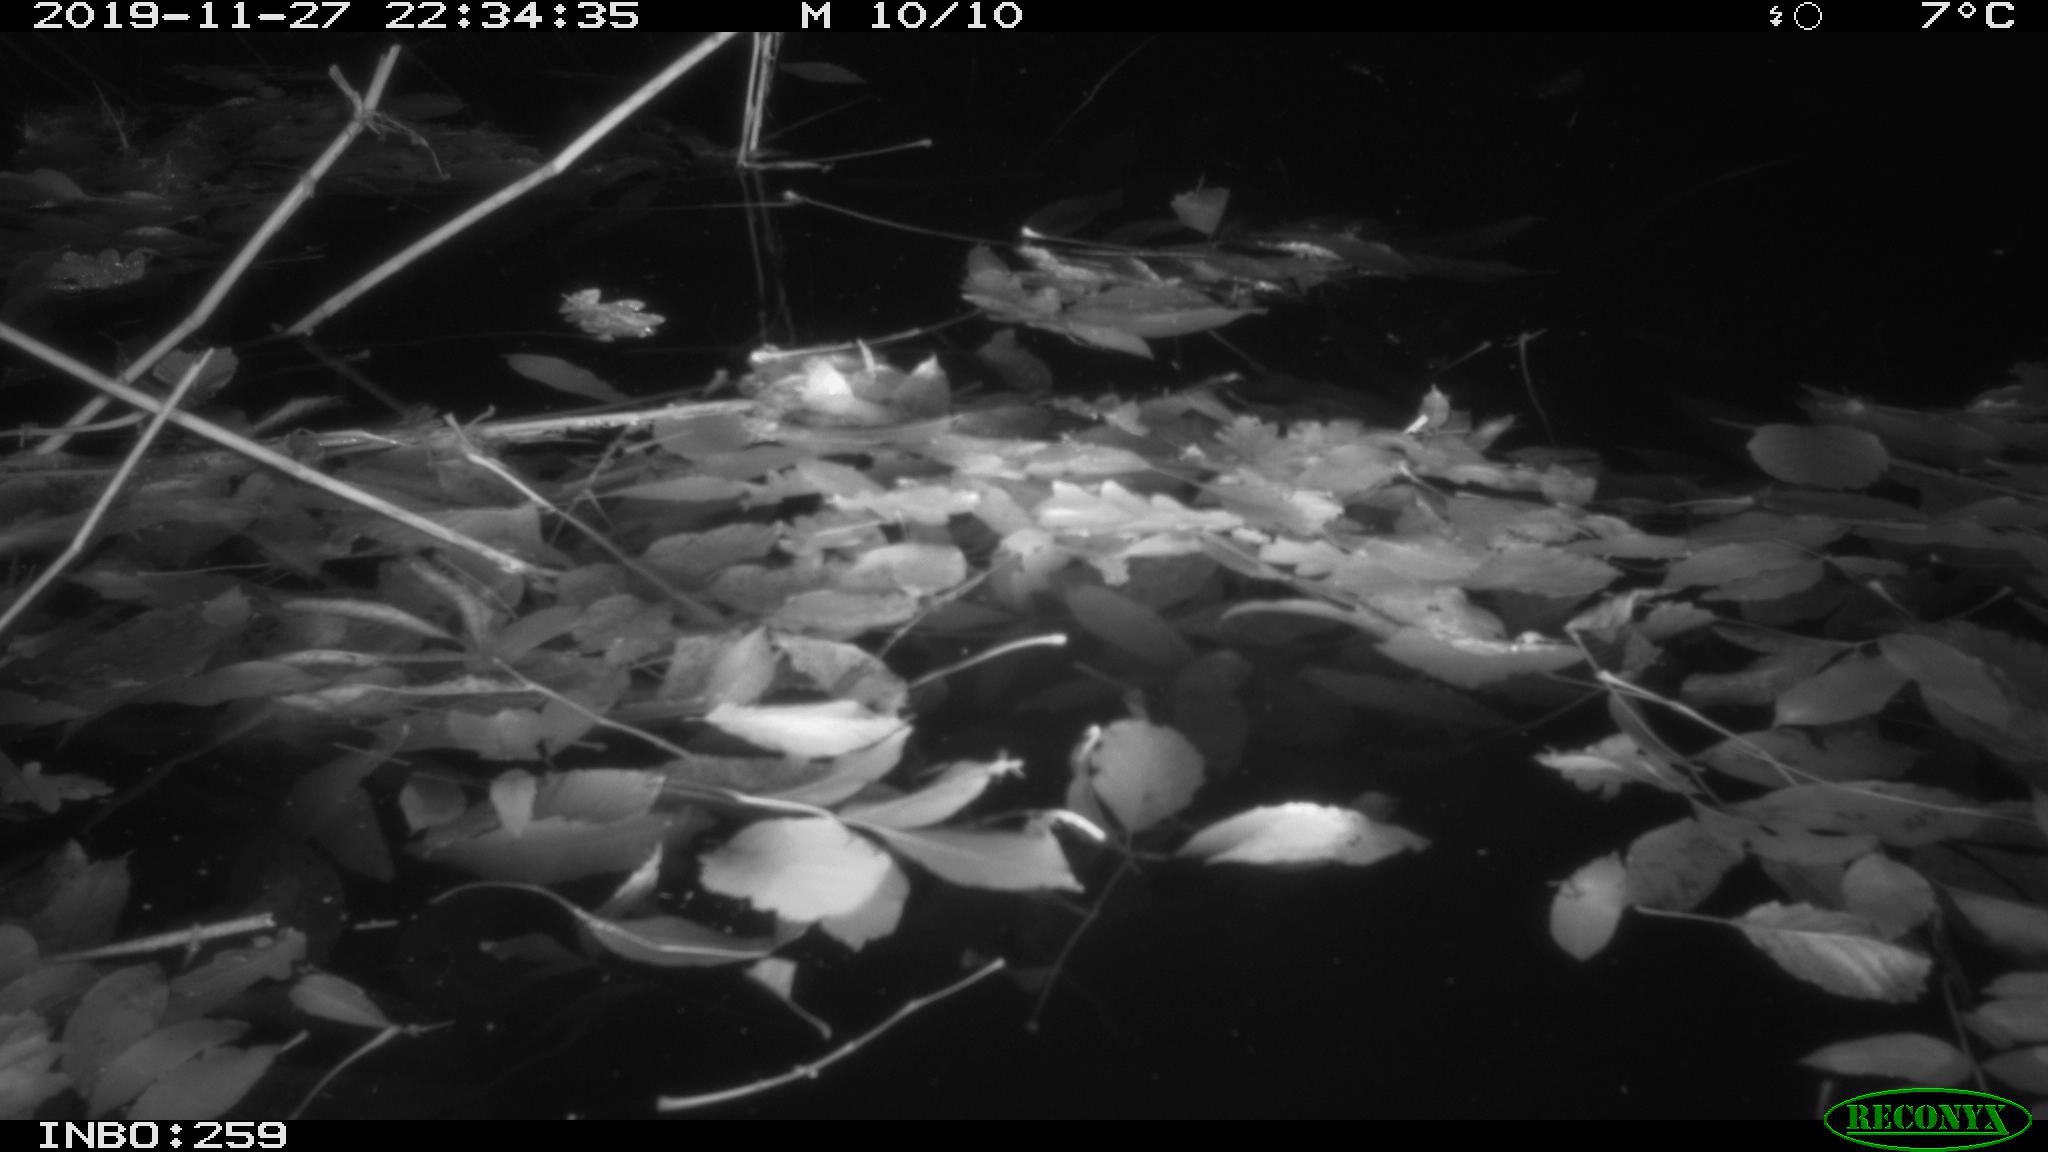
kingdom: Animalia
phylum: Chordata
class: Mammalia
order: Rodentia
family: Muridae
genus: Rattus
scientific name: Rattus norvegicus
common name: Brown rat
